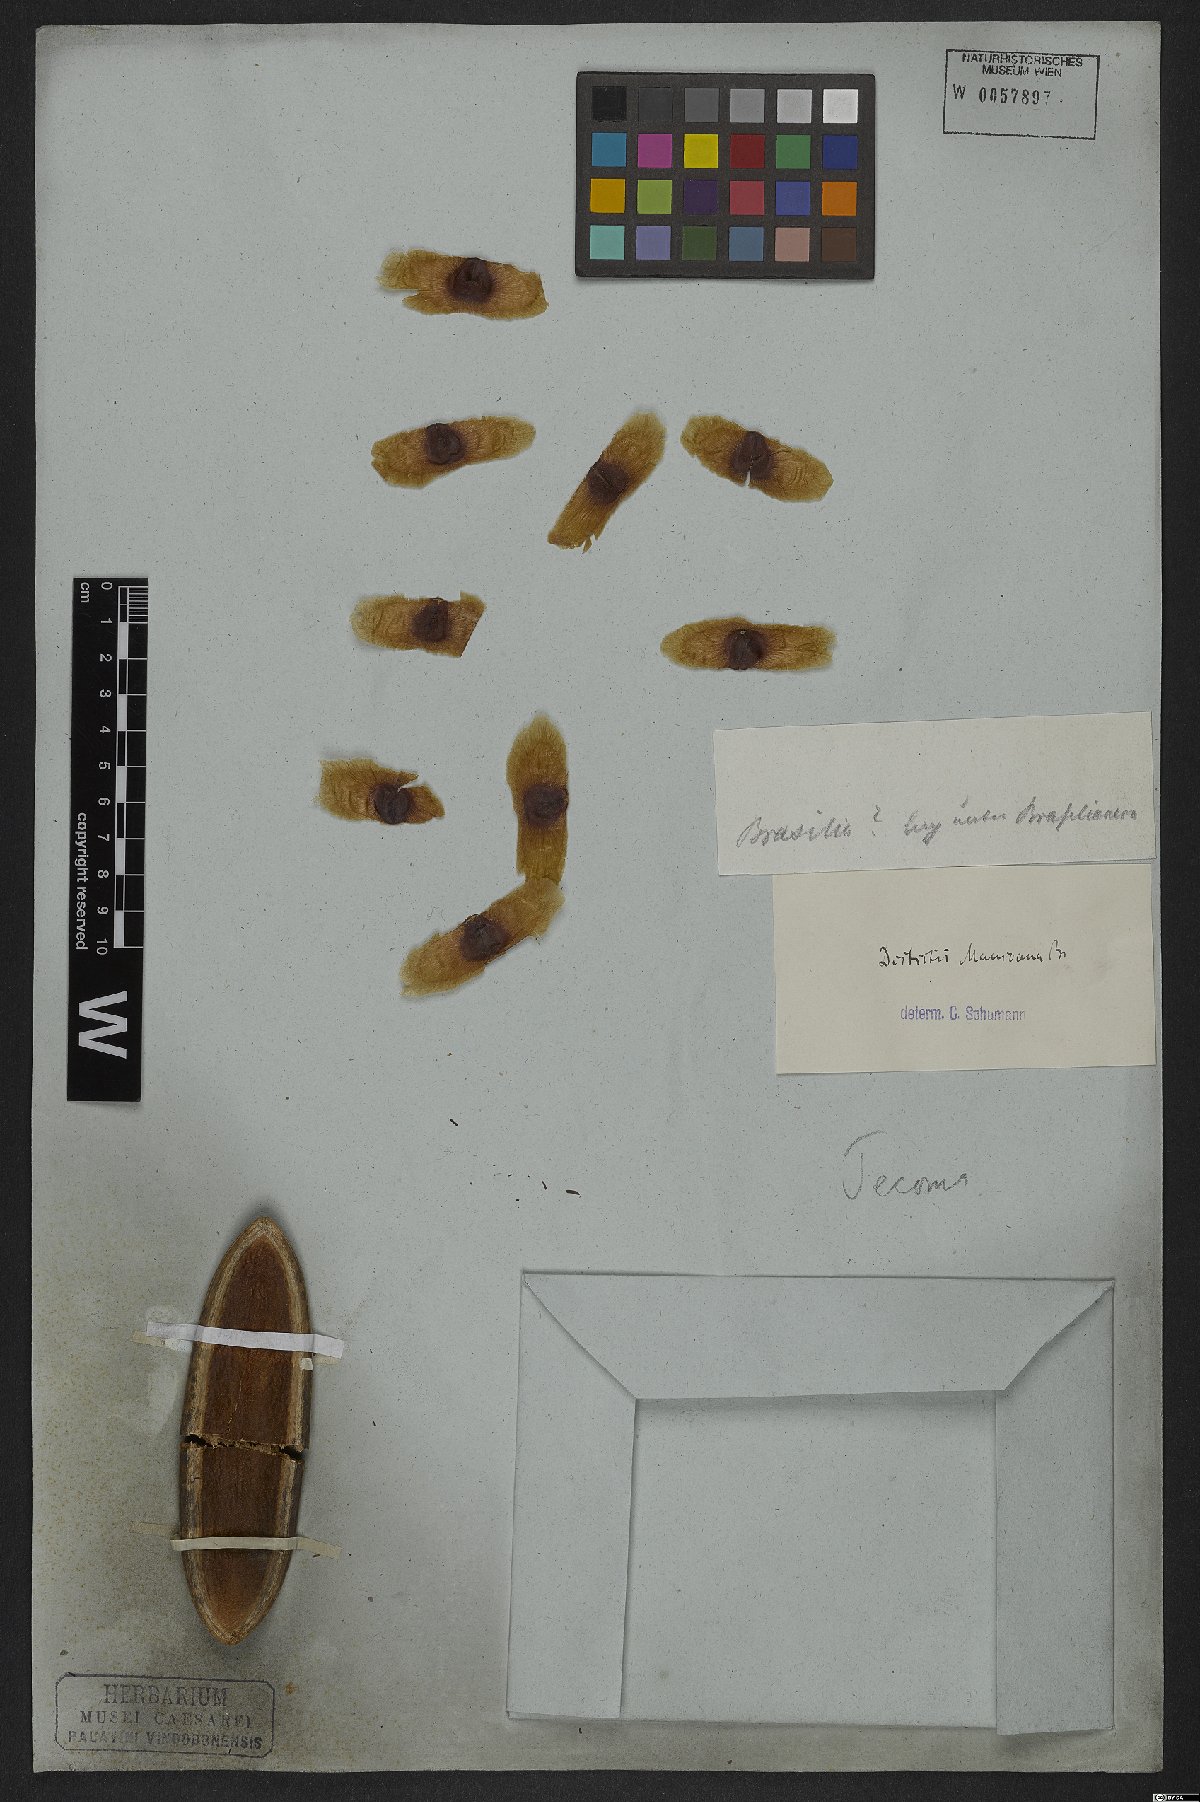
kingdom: Plantae
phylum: Tracheophyta
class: Magnoliopsida
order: Lamiales
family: Bignoniaceae
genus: Amphilophium
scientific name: Amphilophium mansoanum
